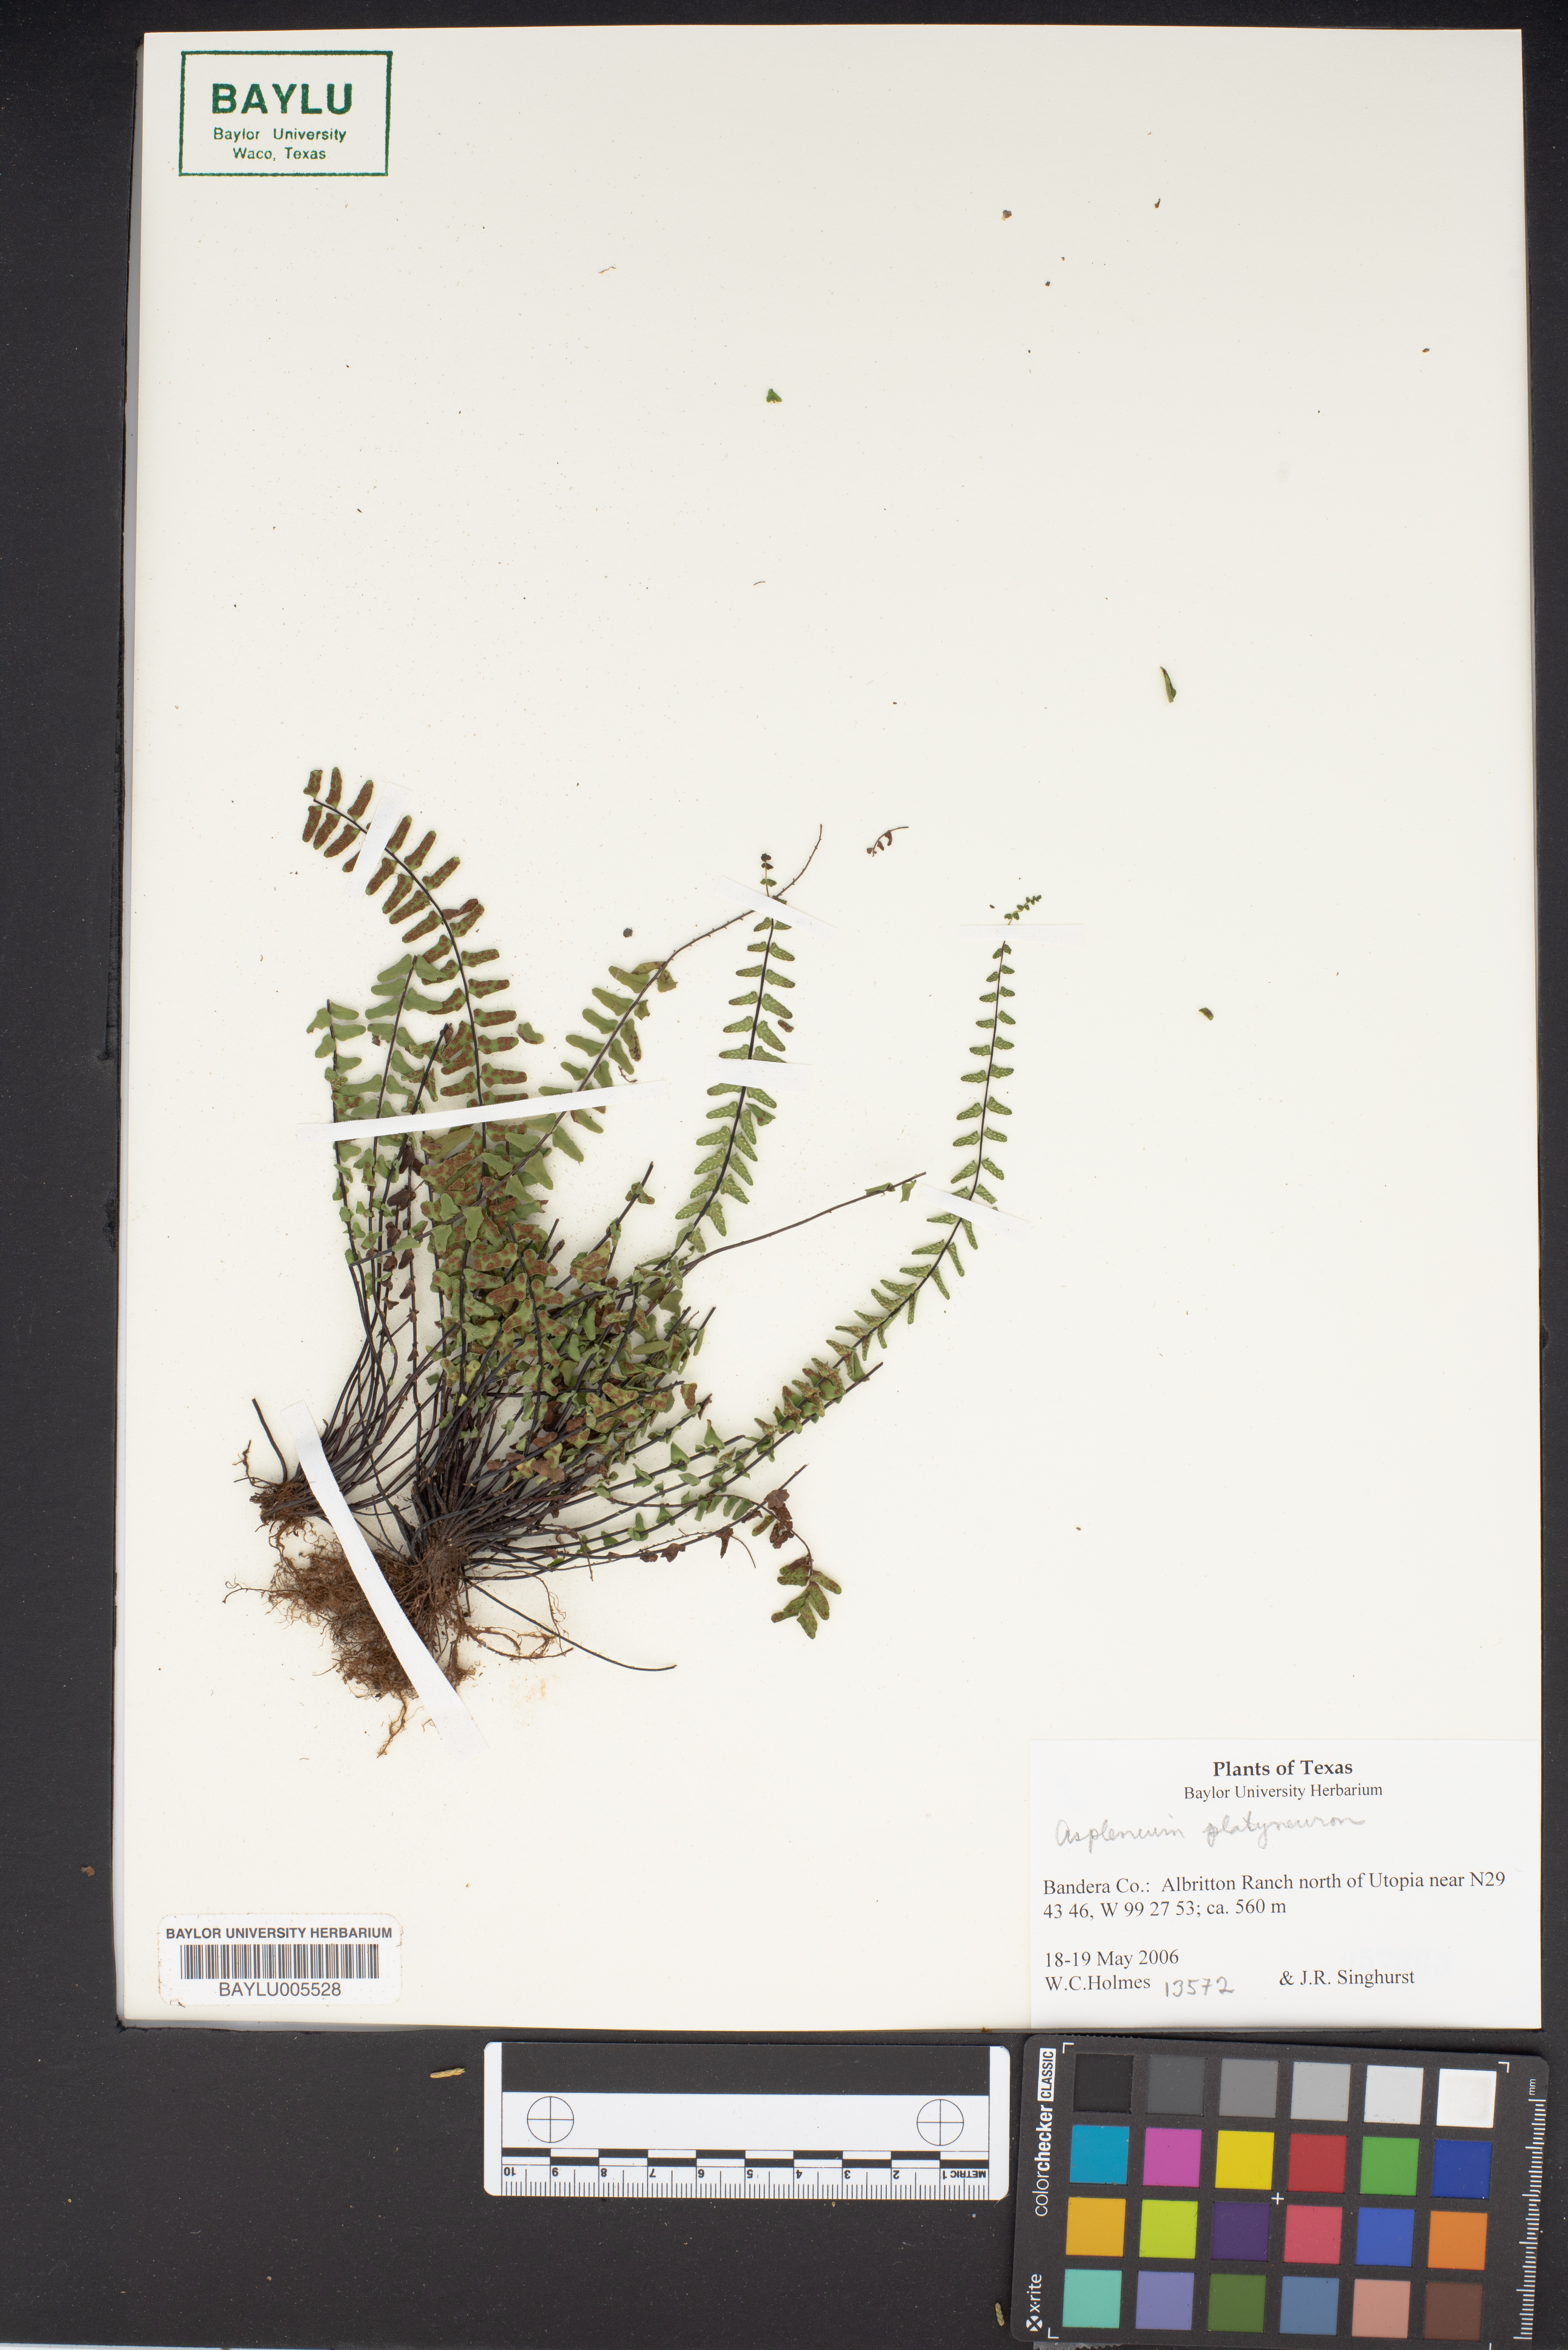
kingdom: Plantae
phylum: Tracheophyta
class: Polypodiopsida
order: Polypodiales
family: Aspleniaceae
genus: Asplenium
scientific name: Asplenium platyneuron
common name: Ebony spleenwort
